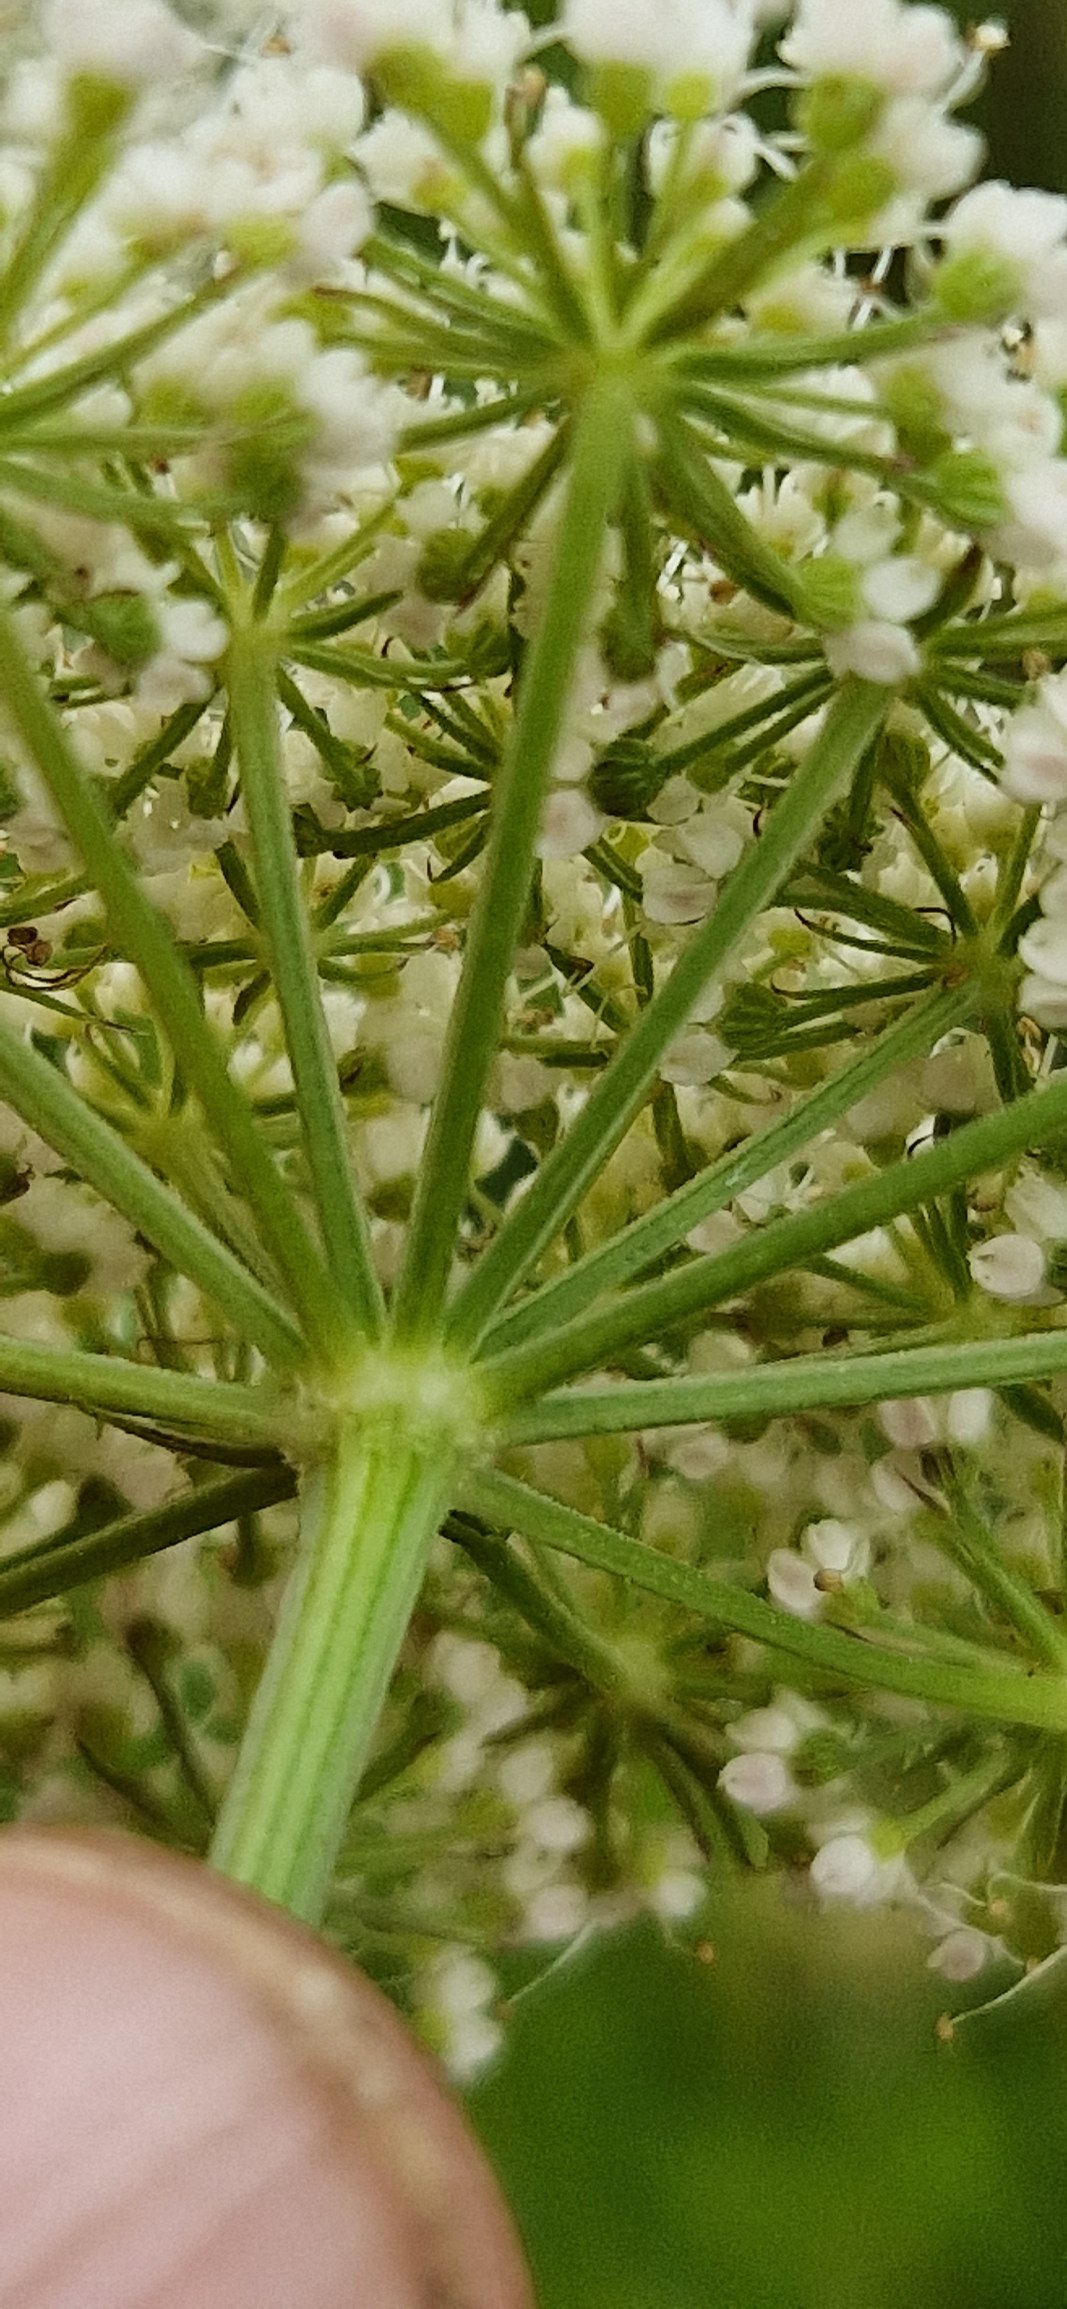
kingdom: Plantae
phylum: Tracheophyta
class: Magnoliopsida
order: Apiales
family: Apiaceae
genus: Selinum
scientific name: Selinum carvifolia
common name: Seline
